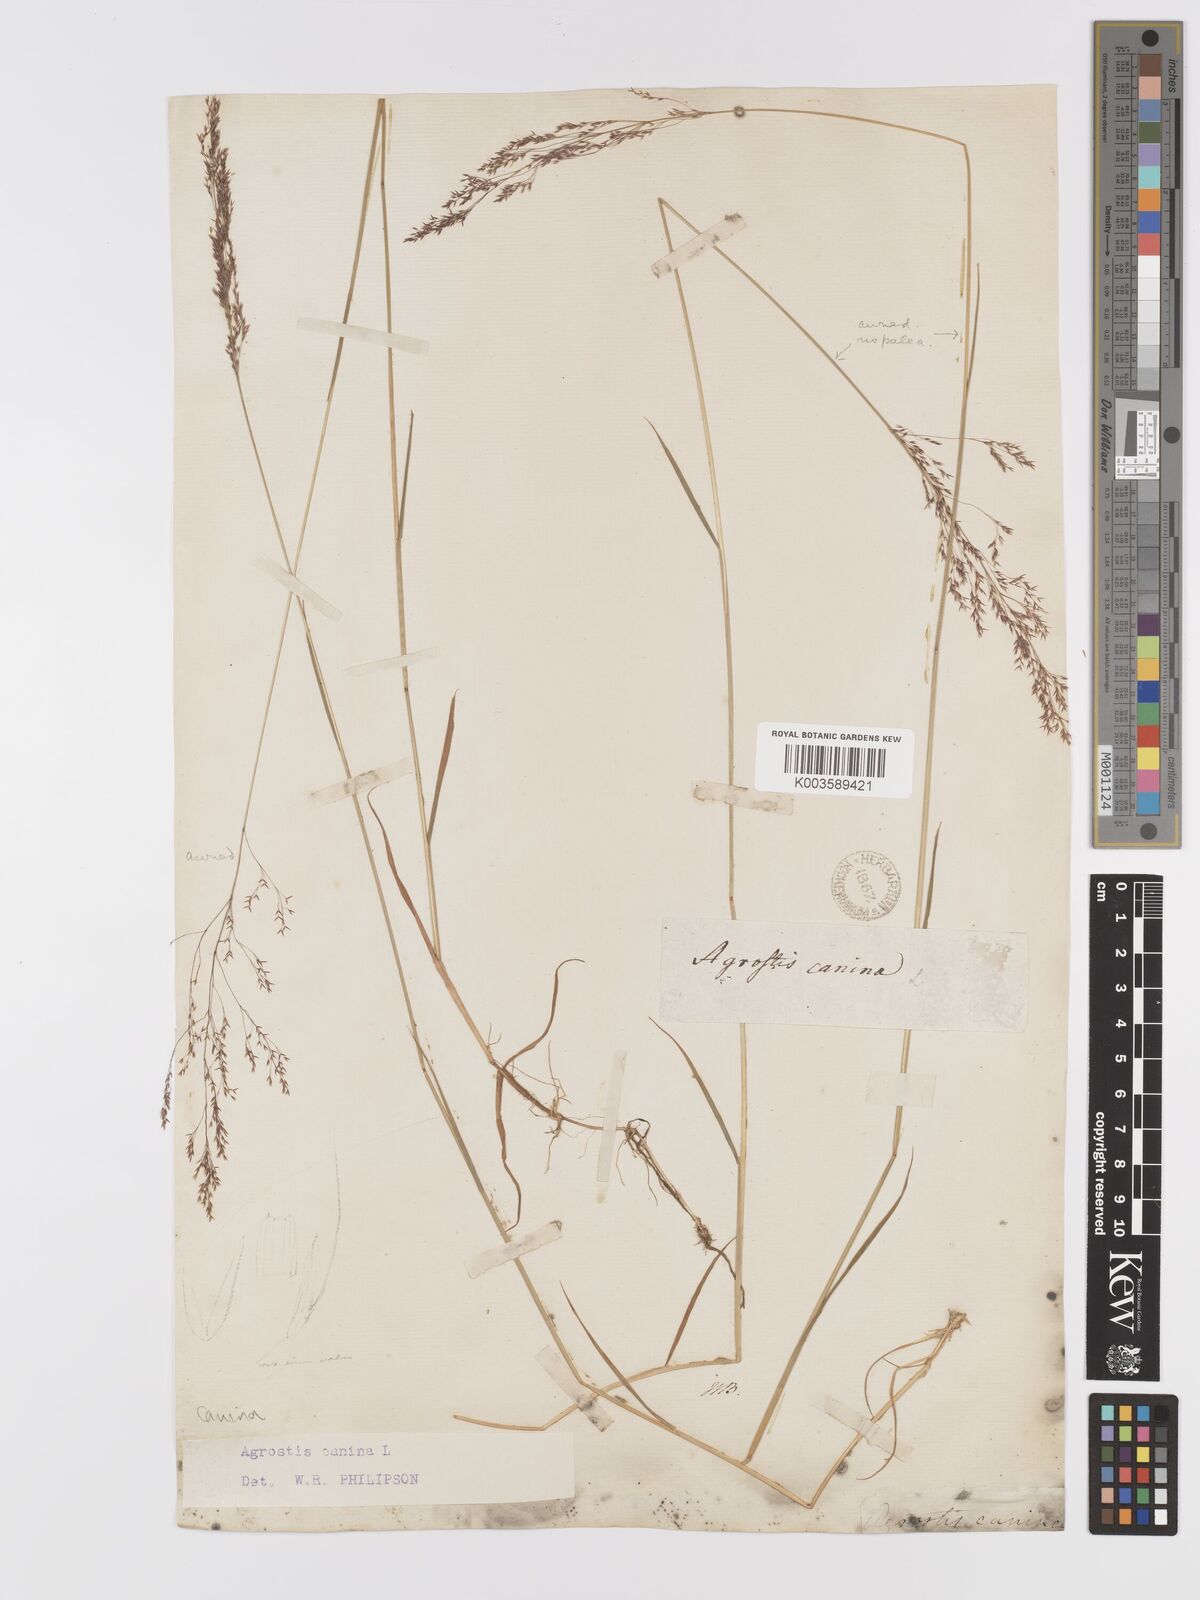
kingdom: Plantae
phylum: Tracheophyta
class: Liliopsida
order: Poales
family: Poaceae
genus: Agrostis
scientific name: Agrostis canina
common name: Velvet bent
